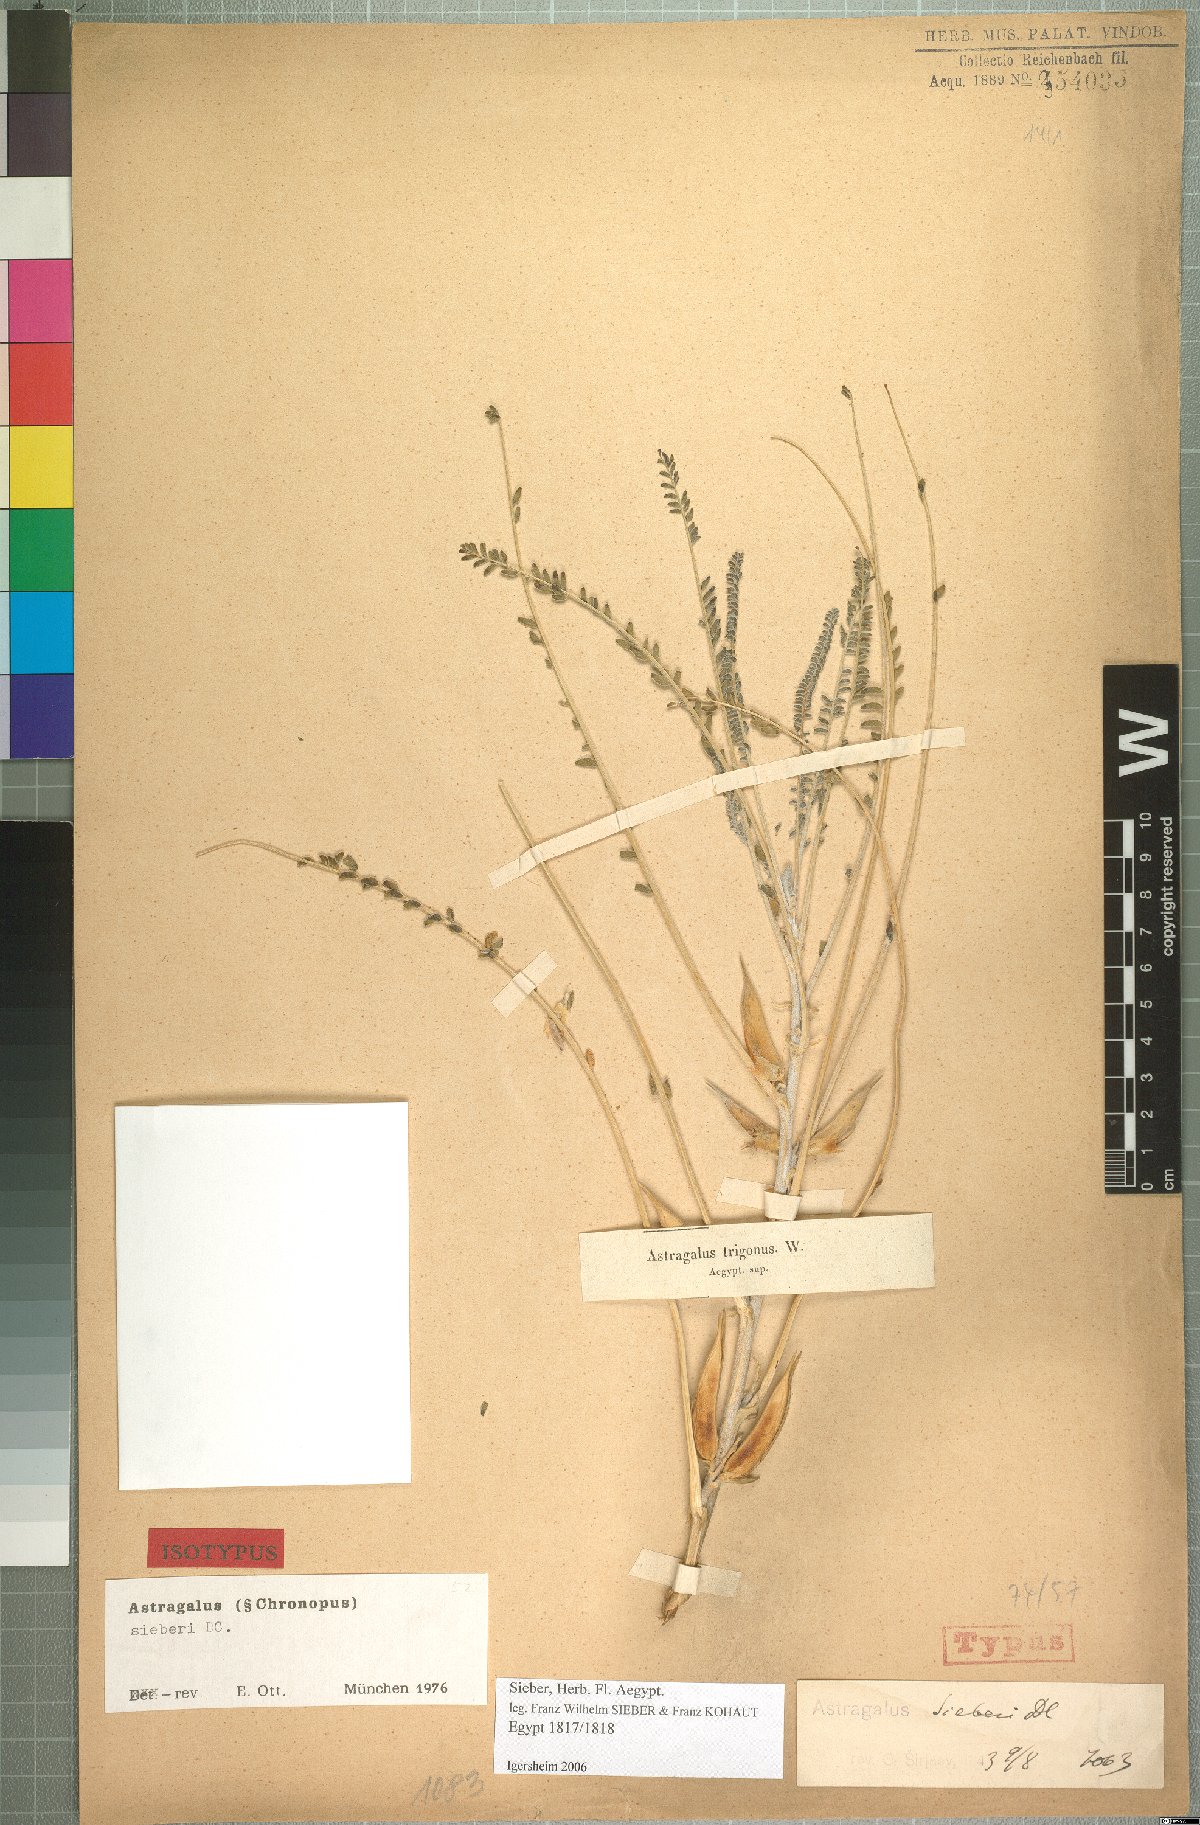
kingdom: Plantae
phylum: Tracheophyta
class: Magnoliopsida
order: Fabales
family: Fabaceae
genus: Astragalus
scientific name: Astragalus sieberi
